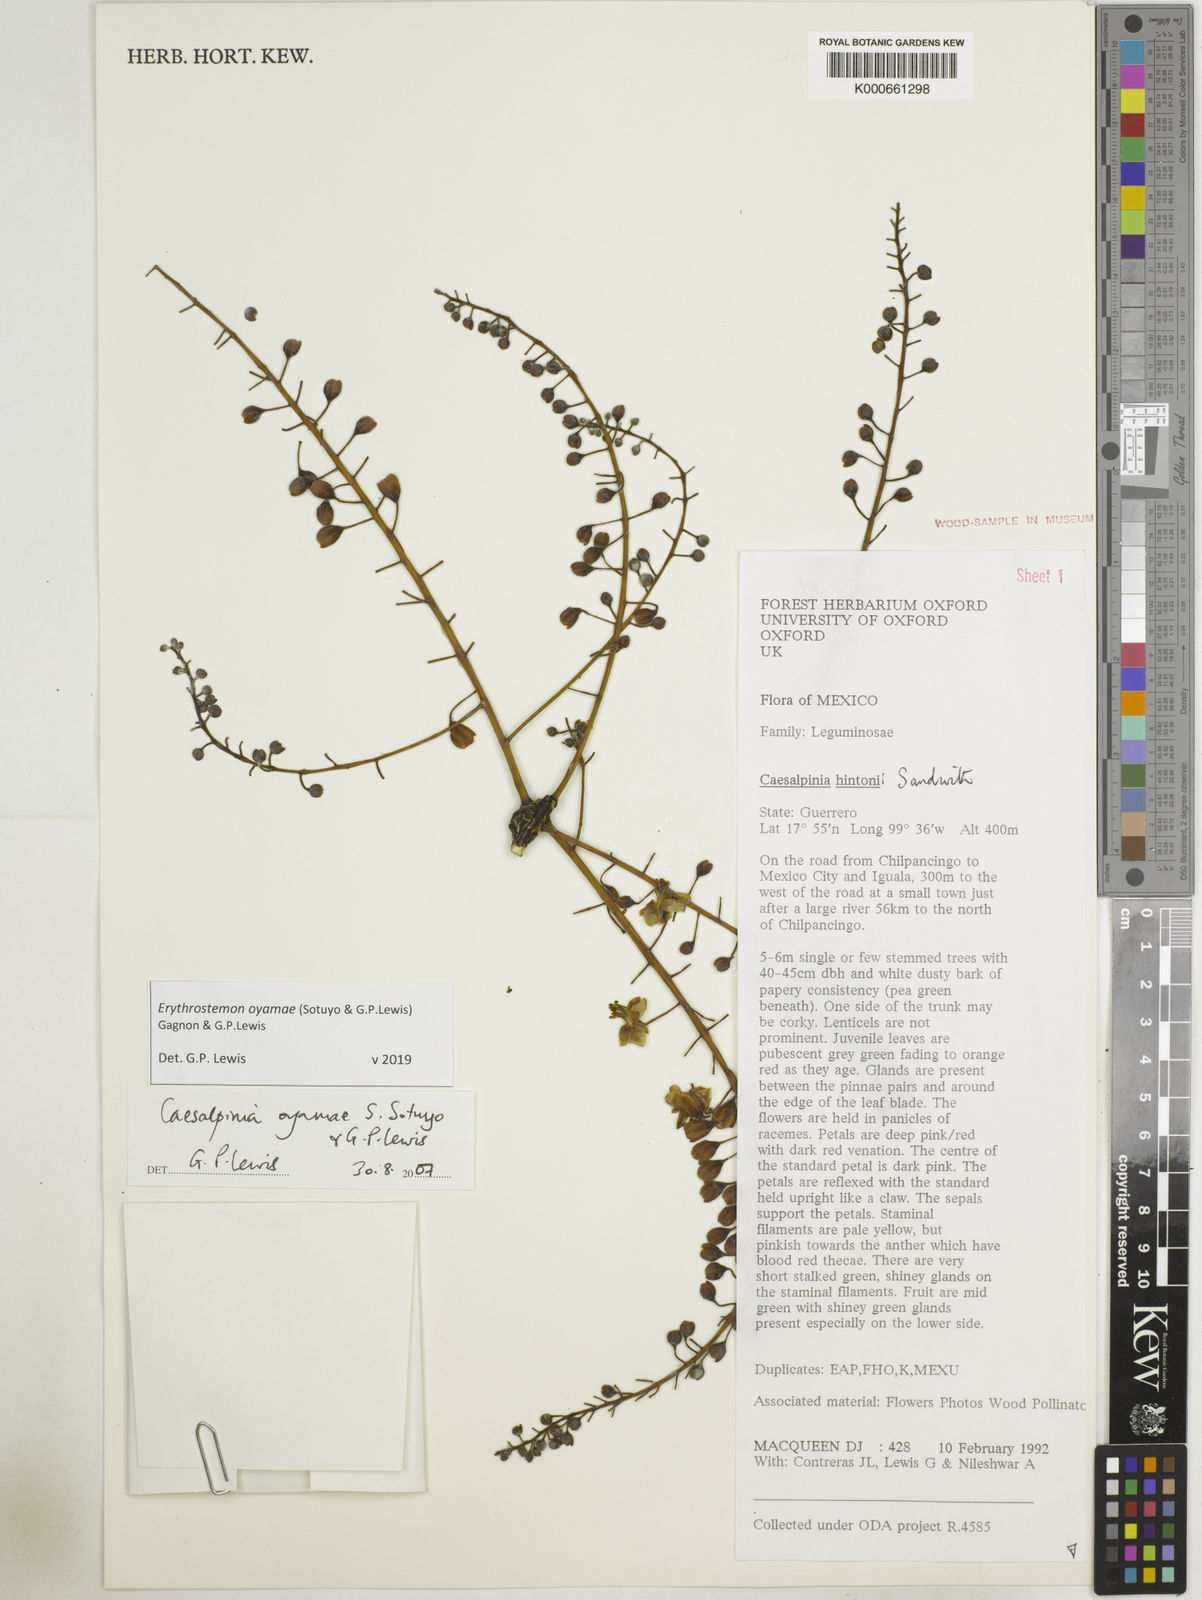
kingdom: Plantae
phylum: Tracheophyta
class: Magnoliopsida
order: Fabales
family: Fabaceae
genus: Erythrostemon
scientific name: Erythrostemon oyamae
